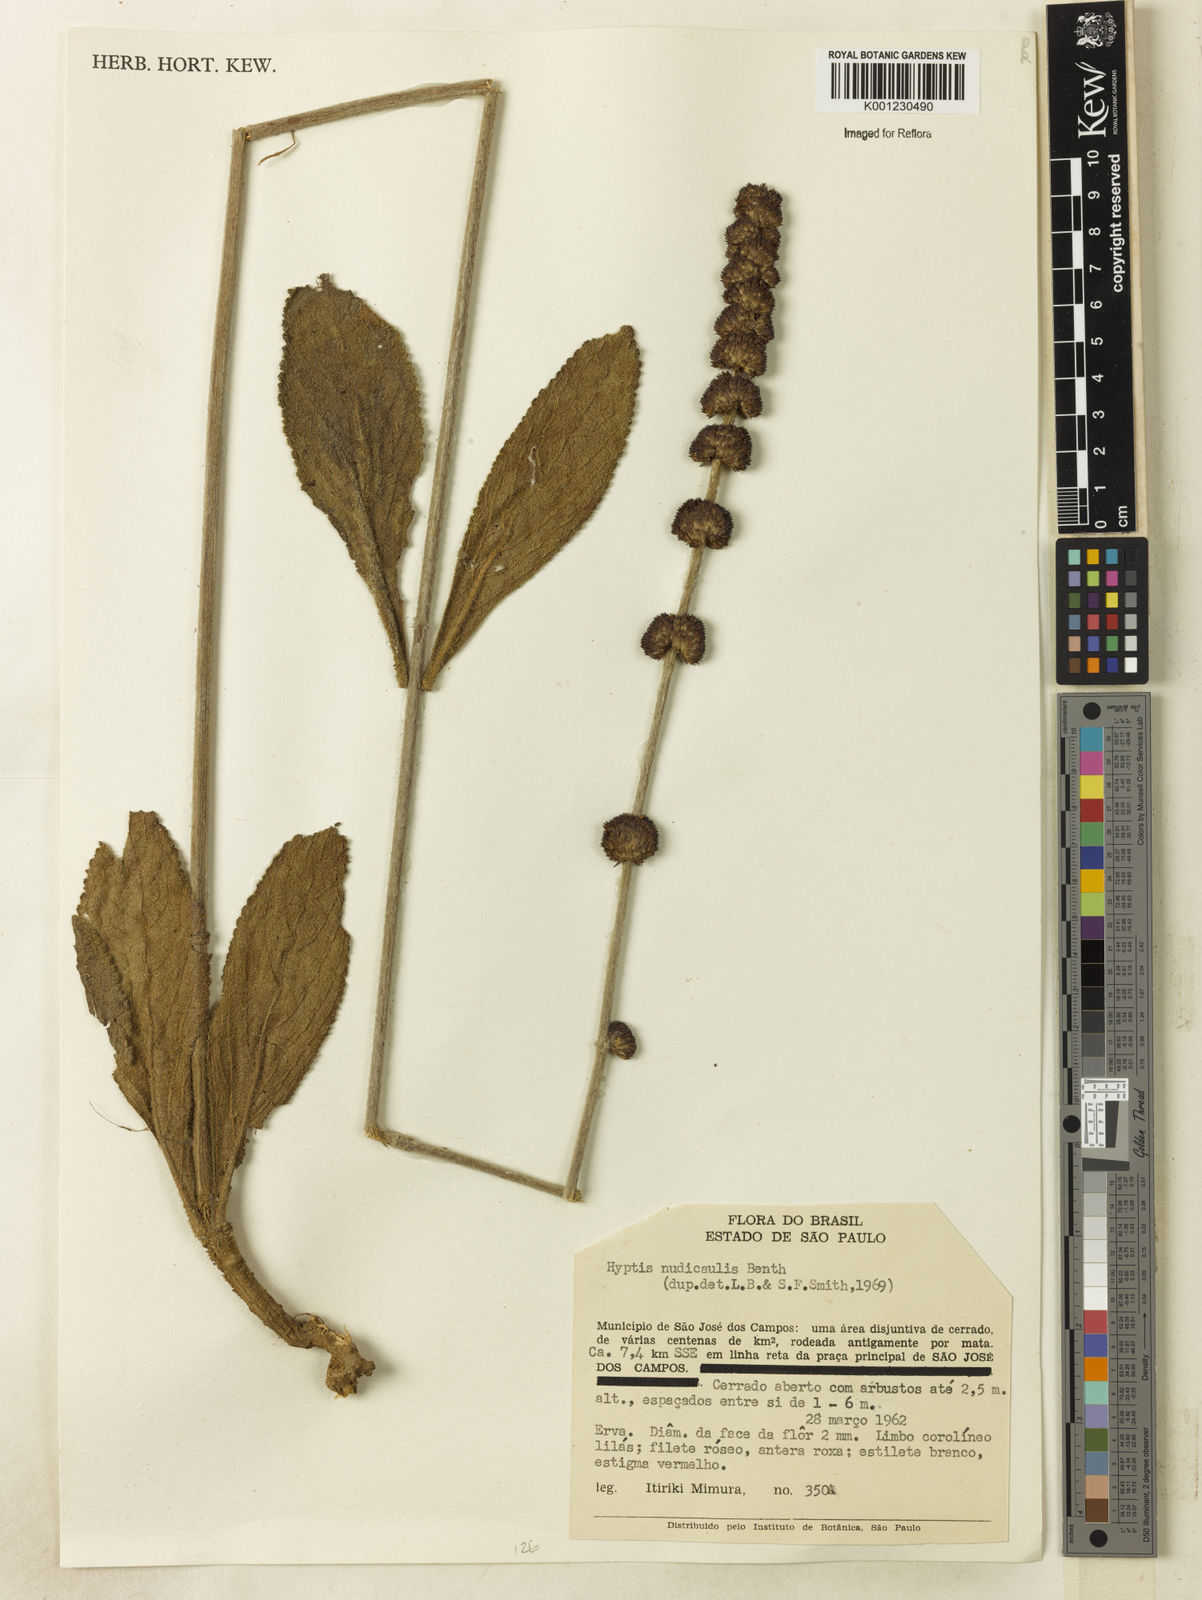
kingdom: Plantae
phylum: Tracheophyta
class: Magnoliopsida
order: Lamiales
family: Lamiaceae
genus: Hyptis
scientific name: Hyptis nudicaulis
